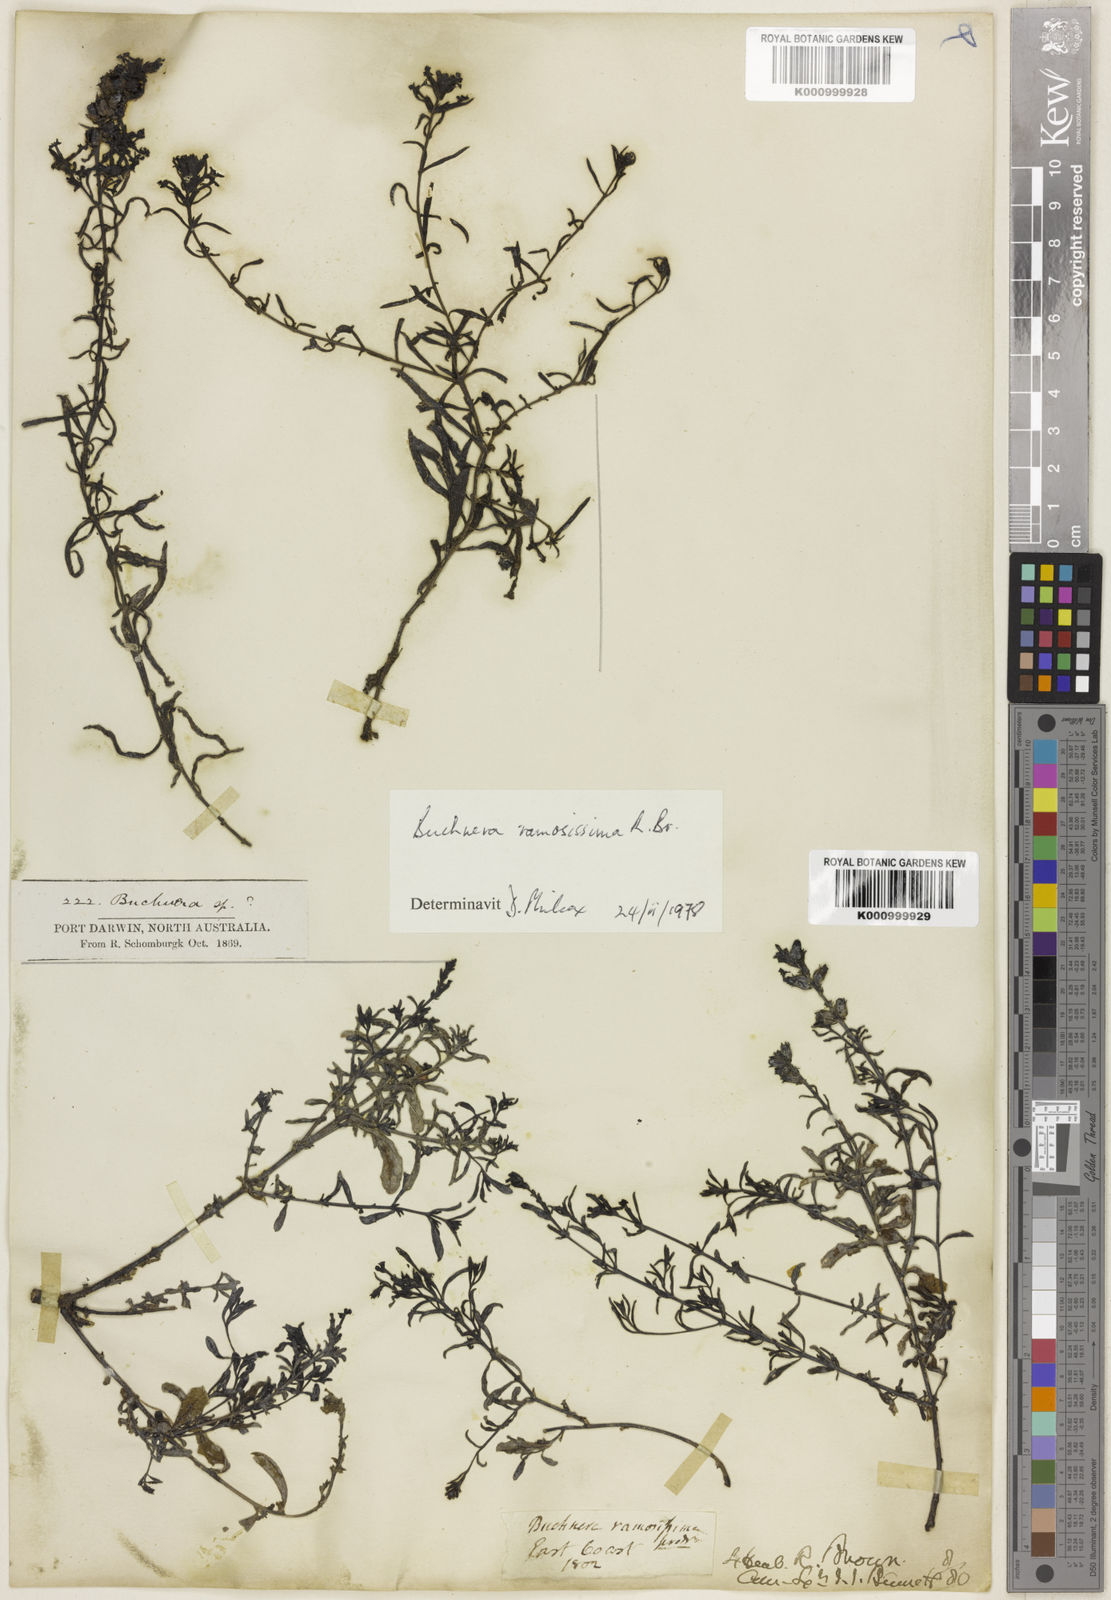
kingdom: Plantae
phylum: Tracheophyta
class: Magnoliopsida
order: Lamiales
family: Orobanchaceae
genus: Buchnera
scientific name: Buchnera ramosissima
